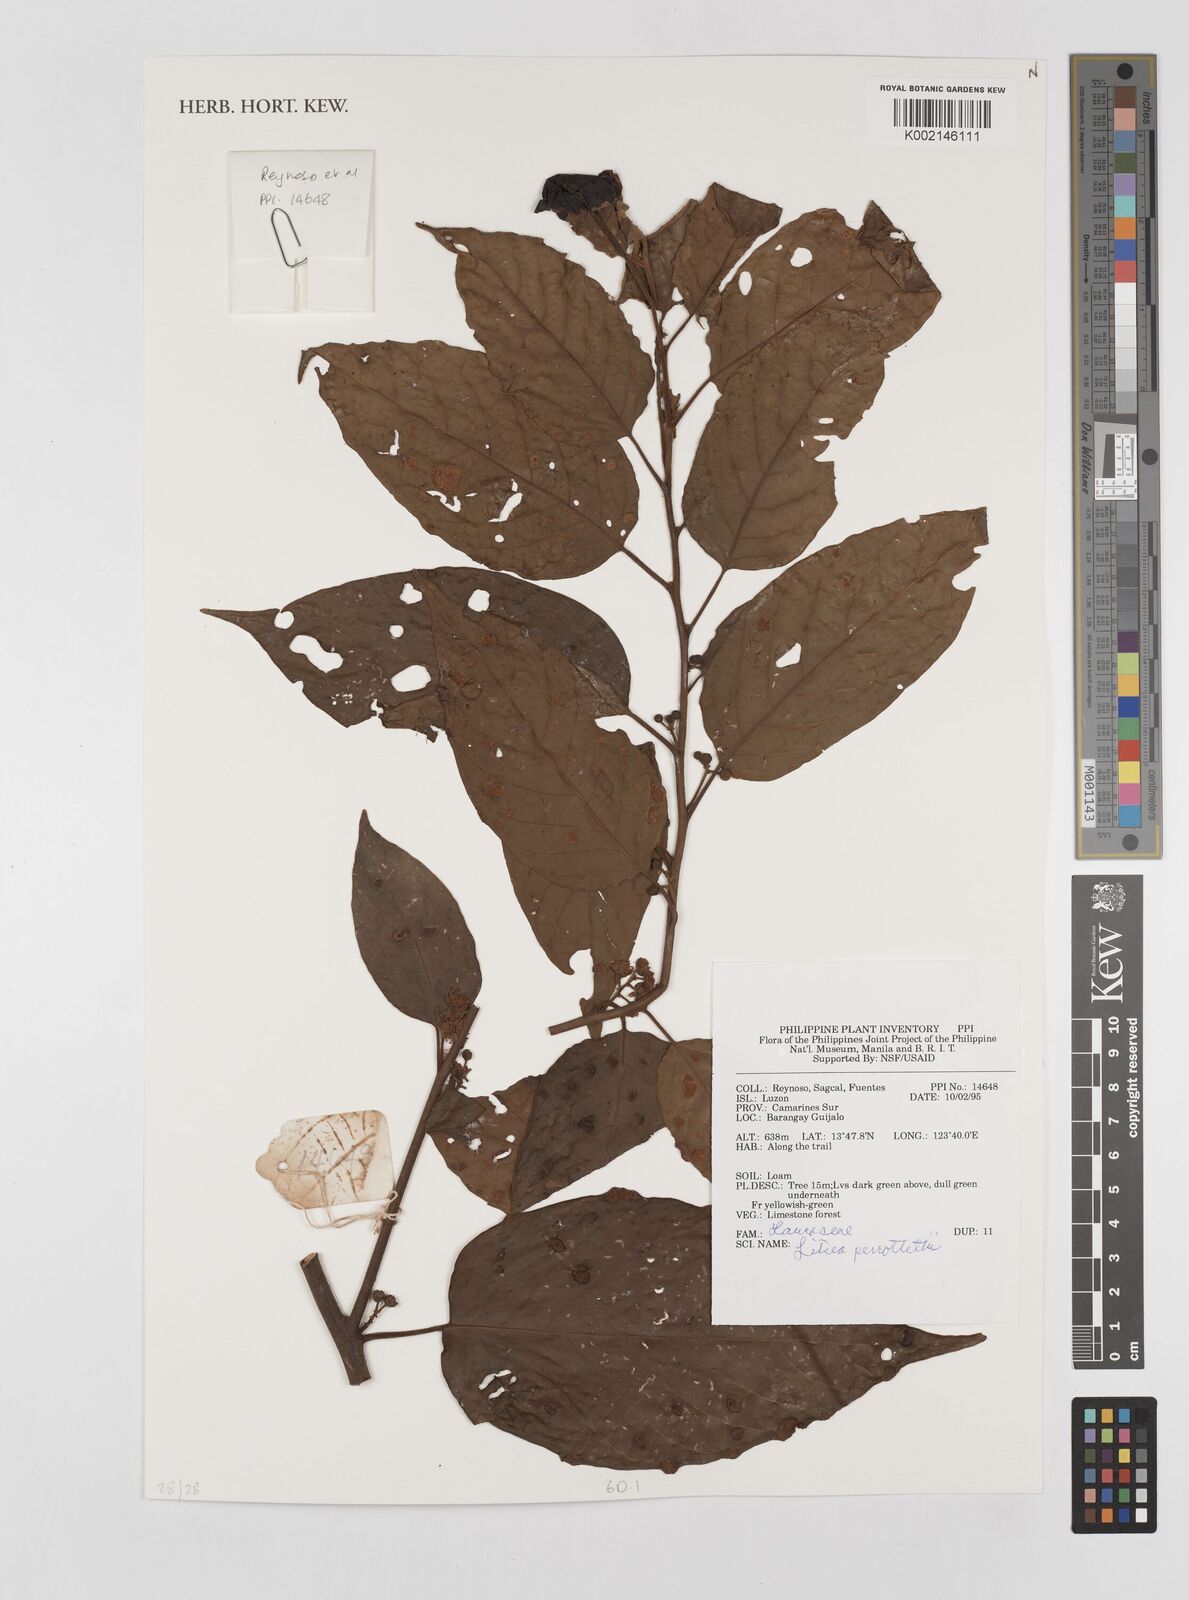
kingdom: Plantae
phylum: Tracheophyta
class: Magnoliopsida
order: Laurales
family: Lauraceae
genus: Litsea
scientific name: Litsea cordata
